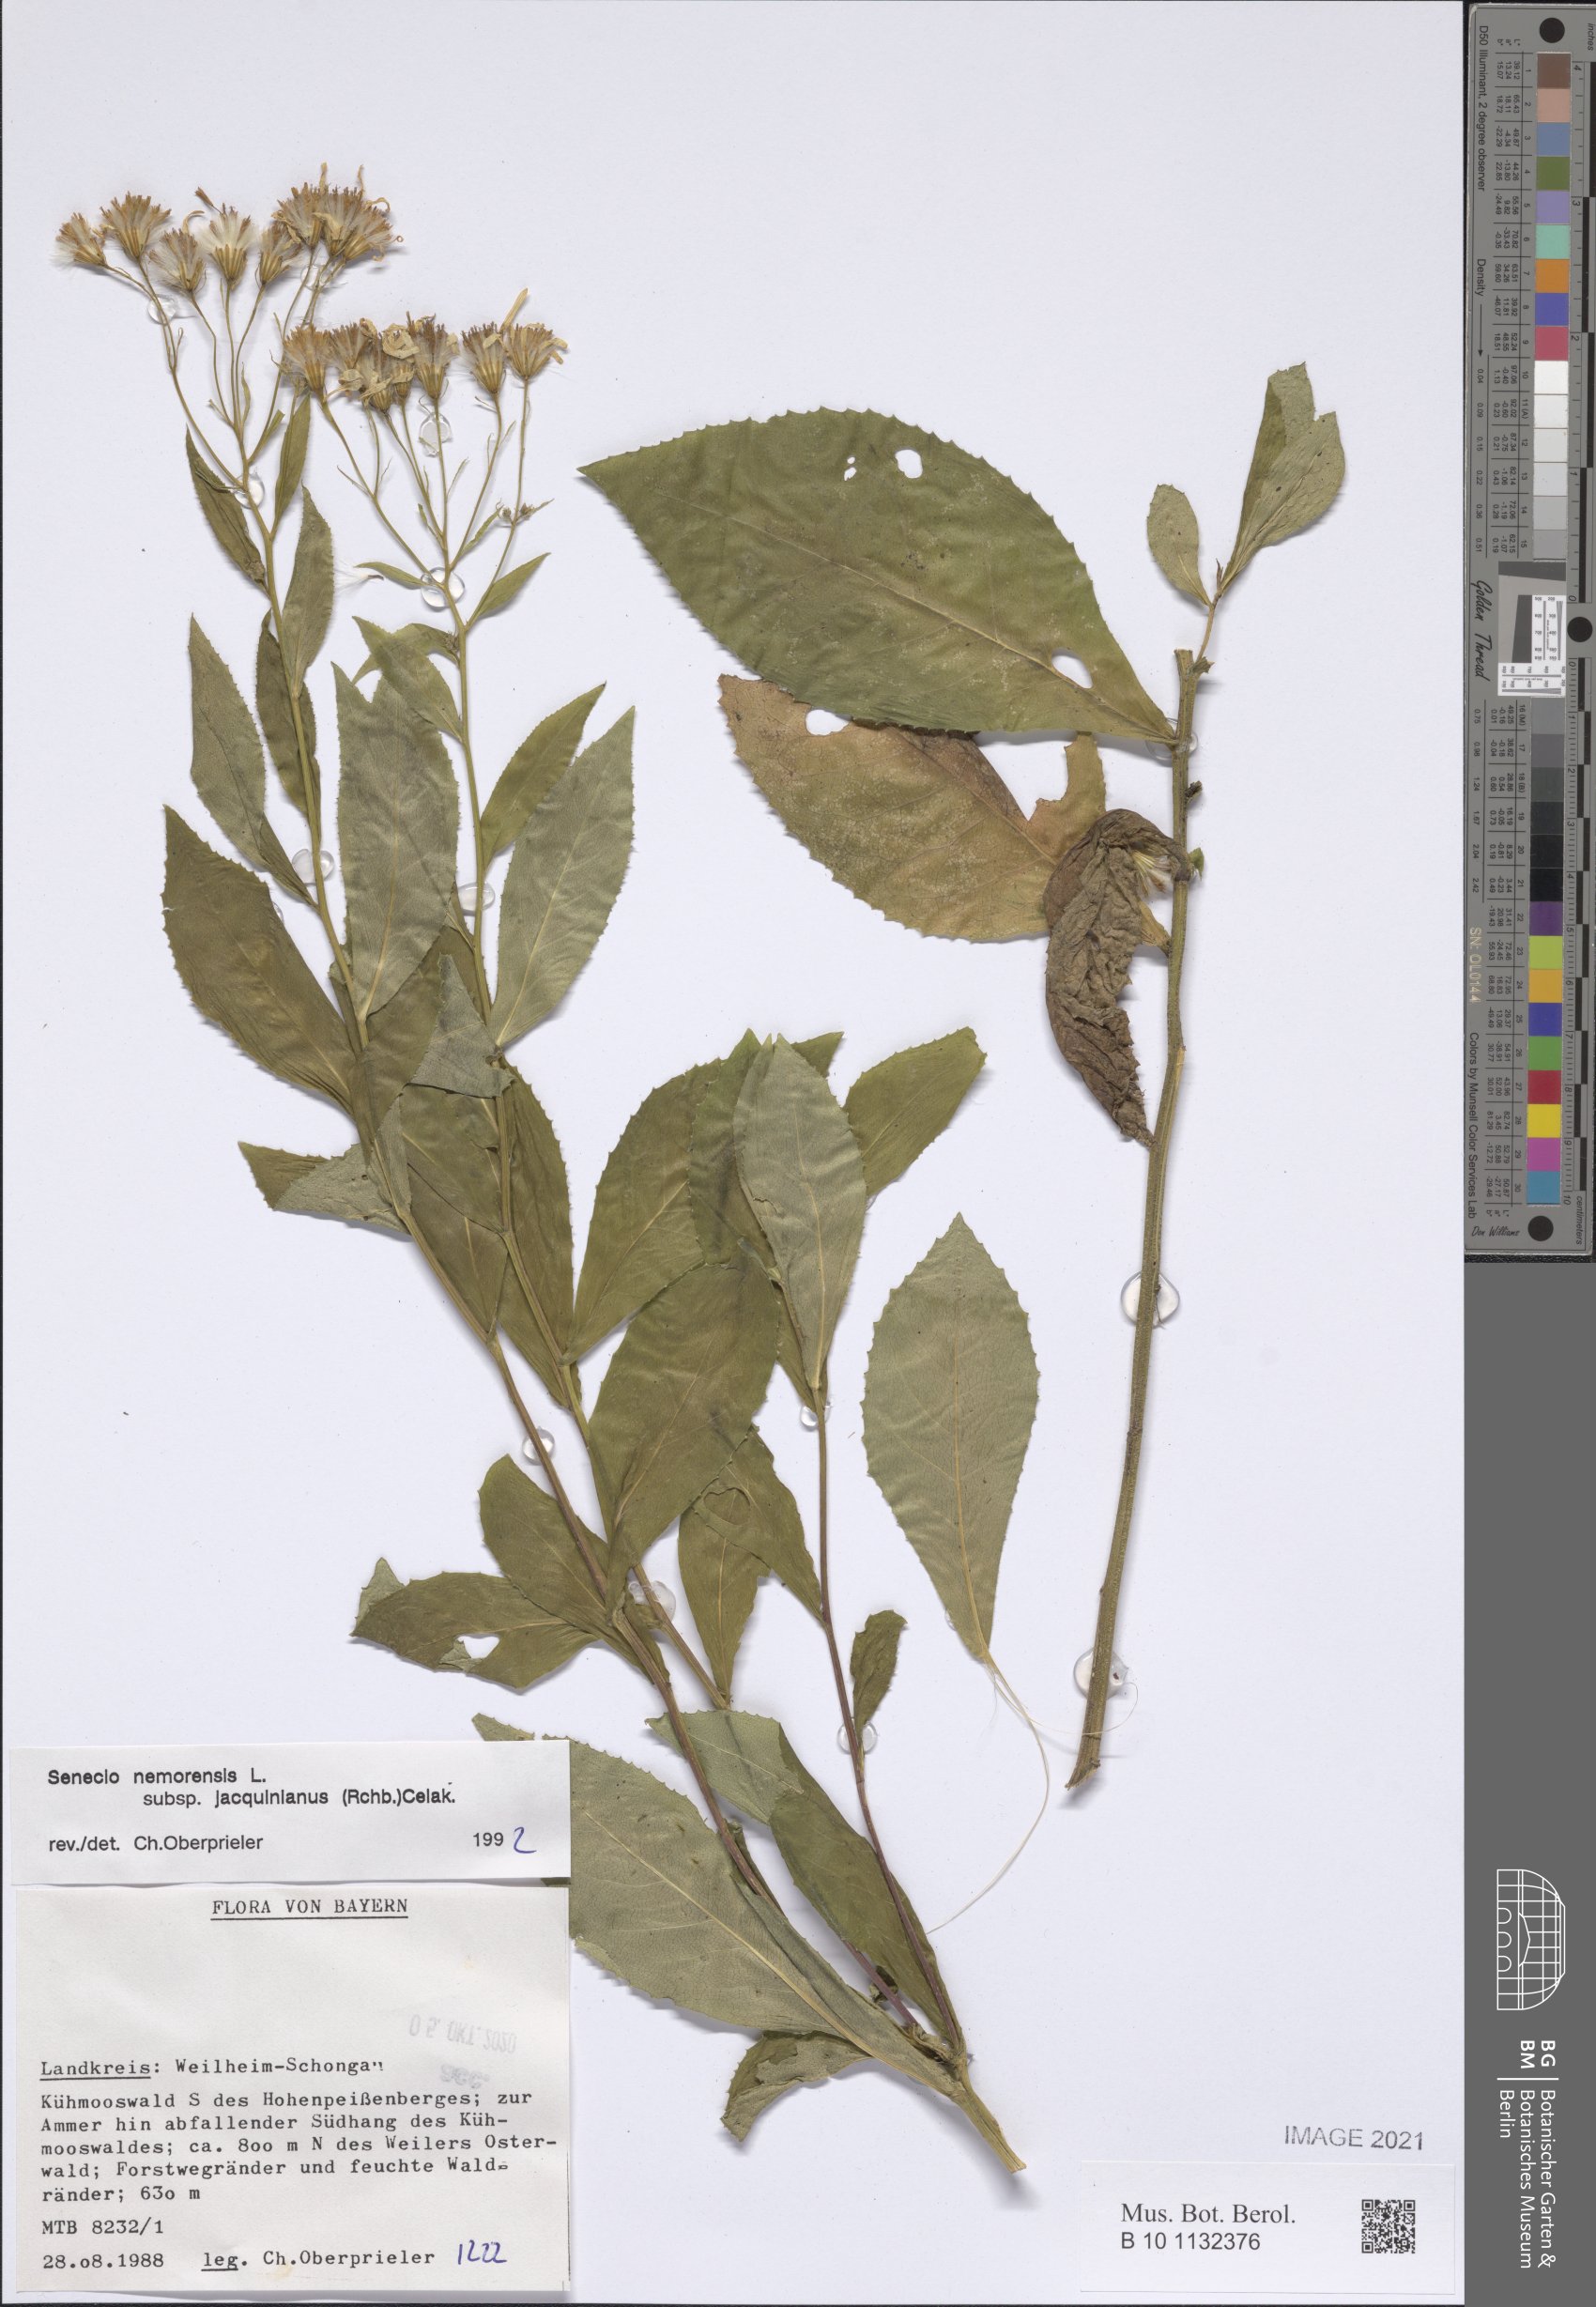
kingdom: Plantae
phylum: Tracheophyta
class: Magnoliopsida
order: Asterales
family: Asteraceae
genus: Senecio
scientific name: Senecio germanicus
